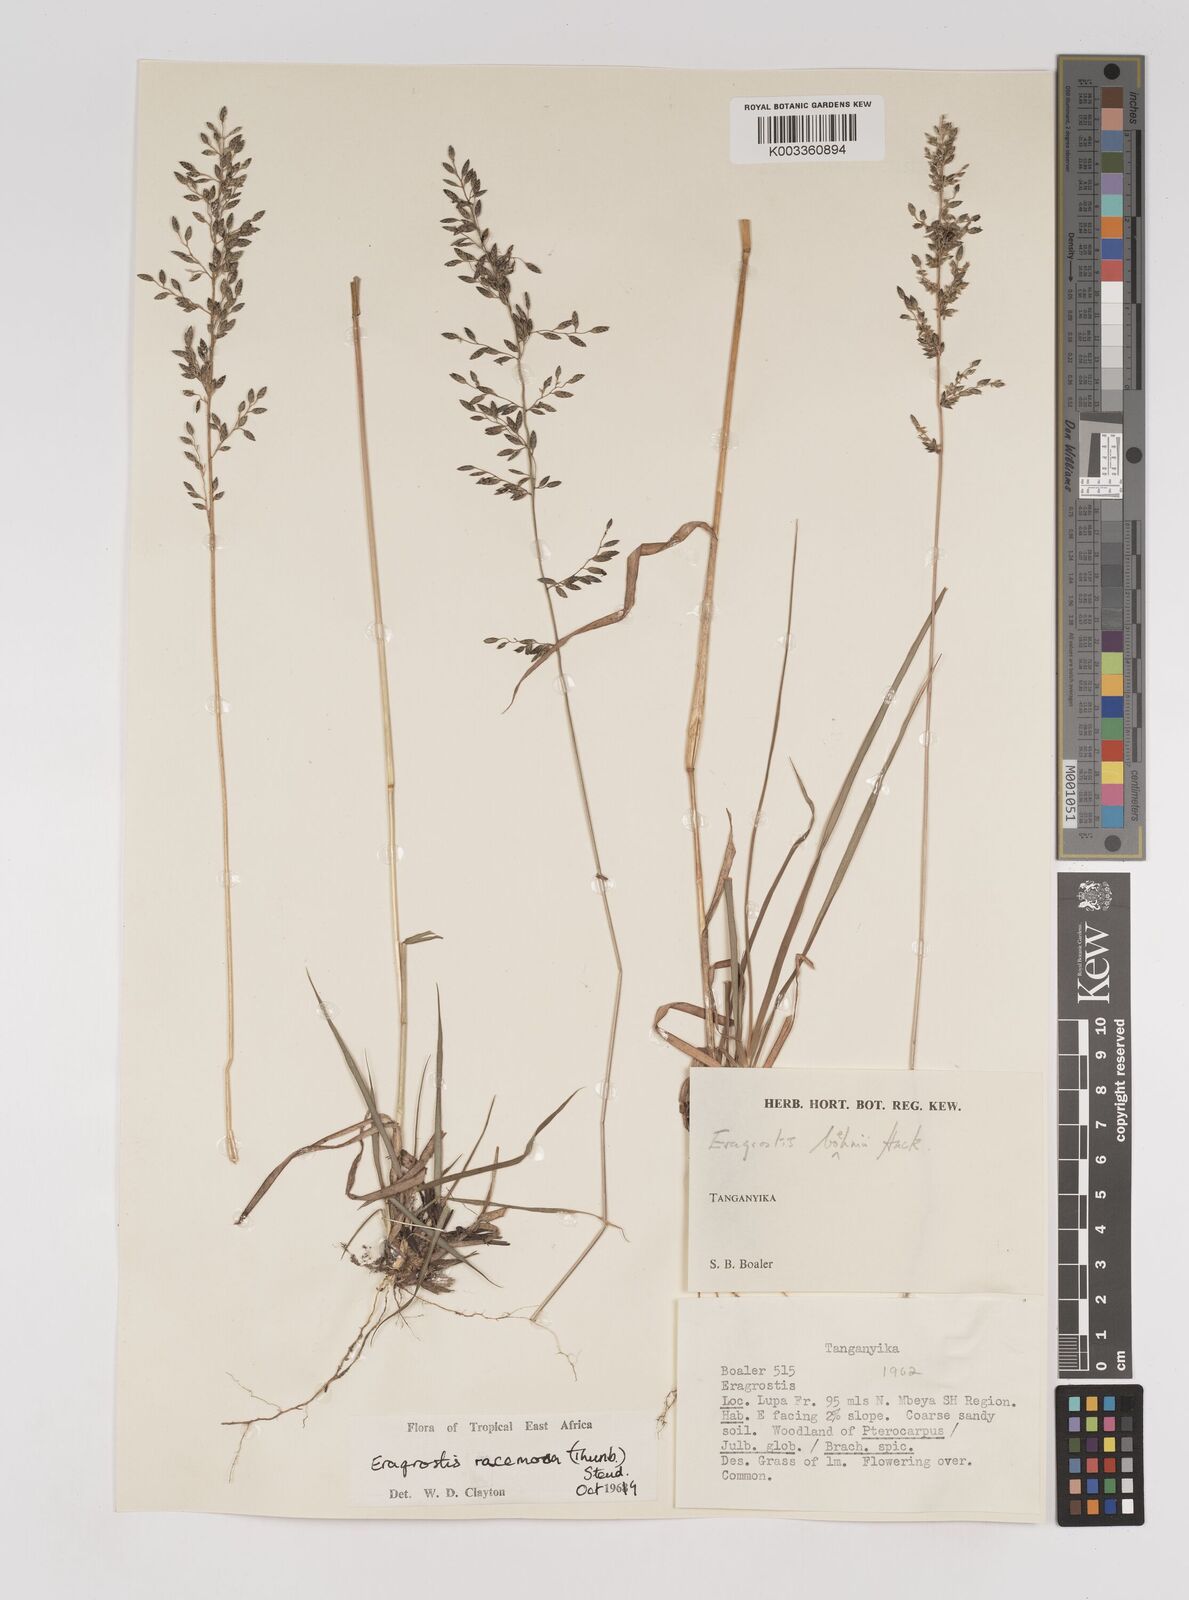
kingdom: Plantae
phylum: Tracheophyta
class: Liliopsida
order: Poales
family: Poaceae
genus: Eragrostis
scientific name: Eragrostis racemosa
